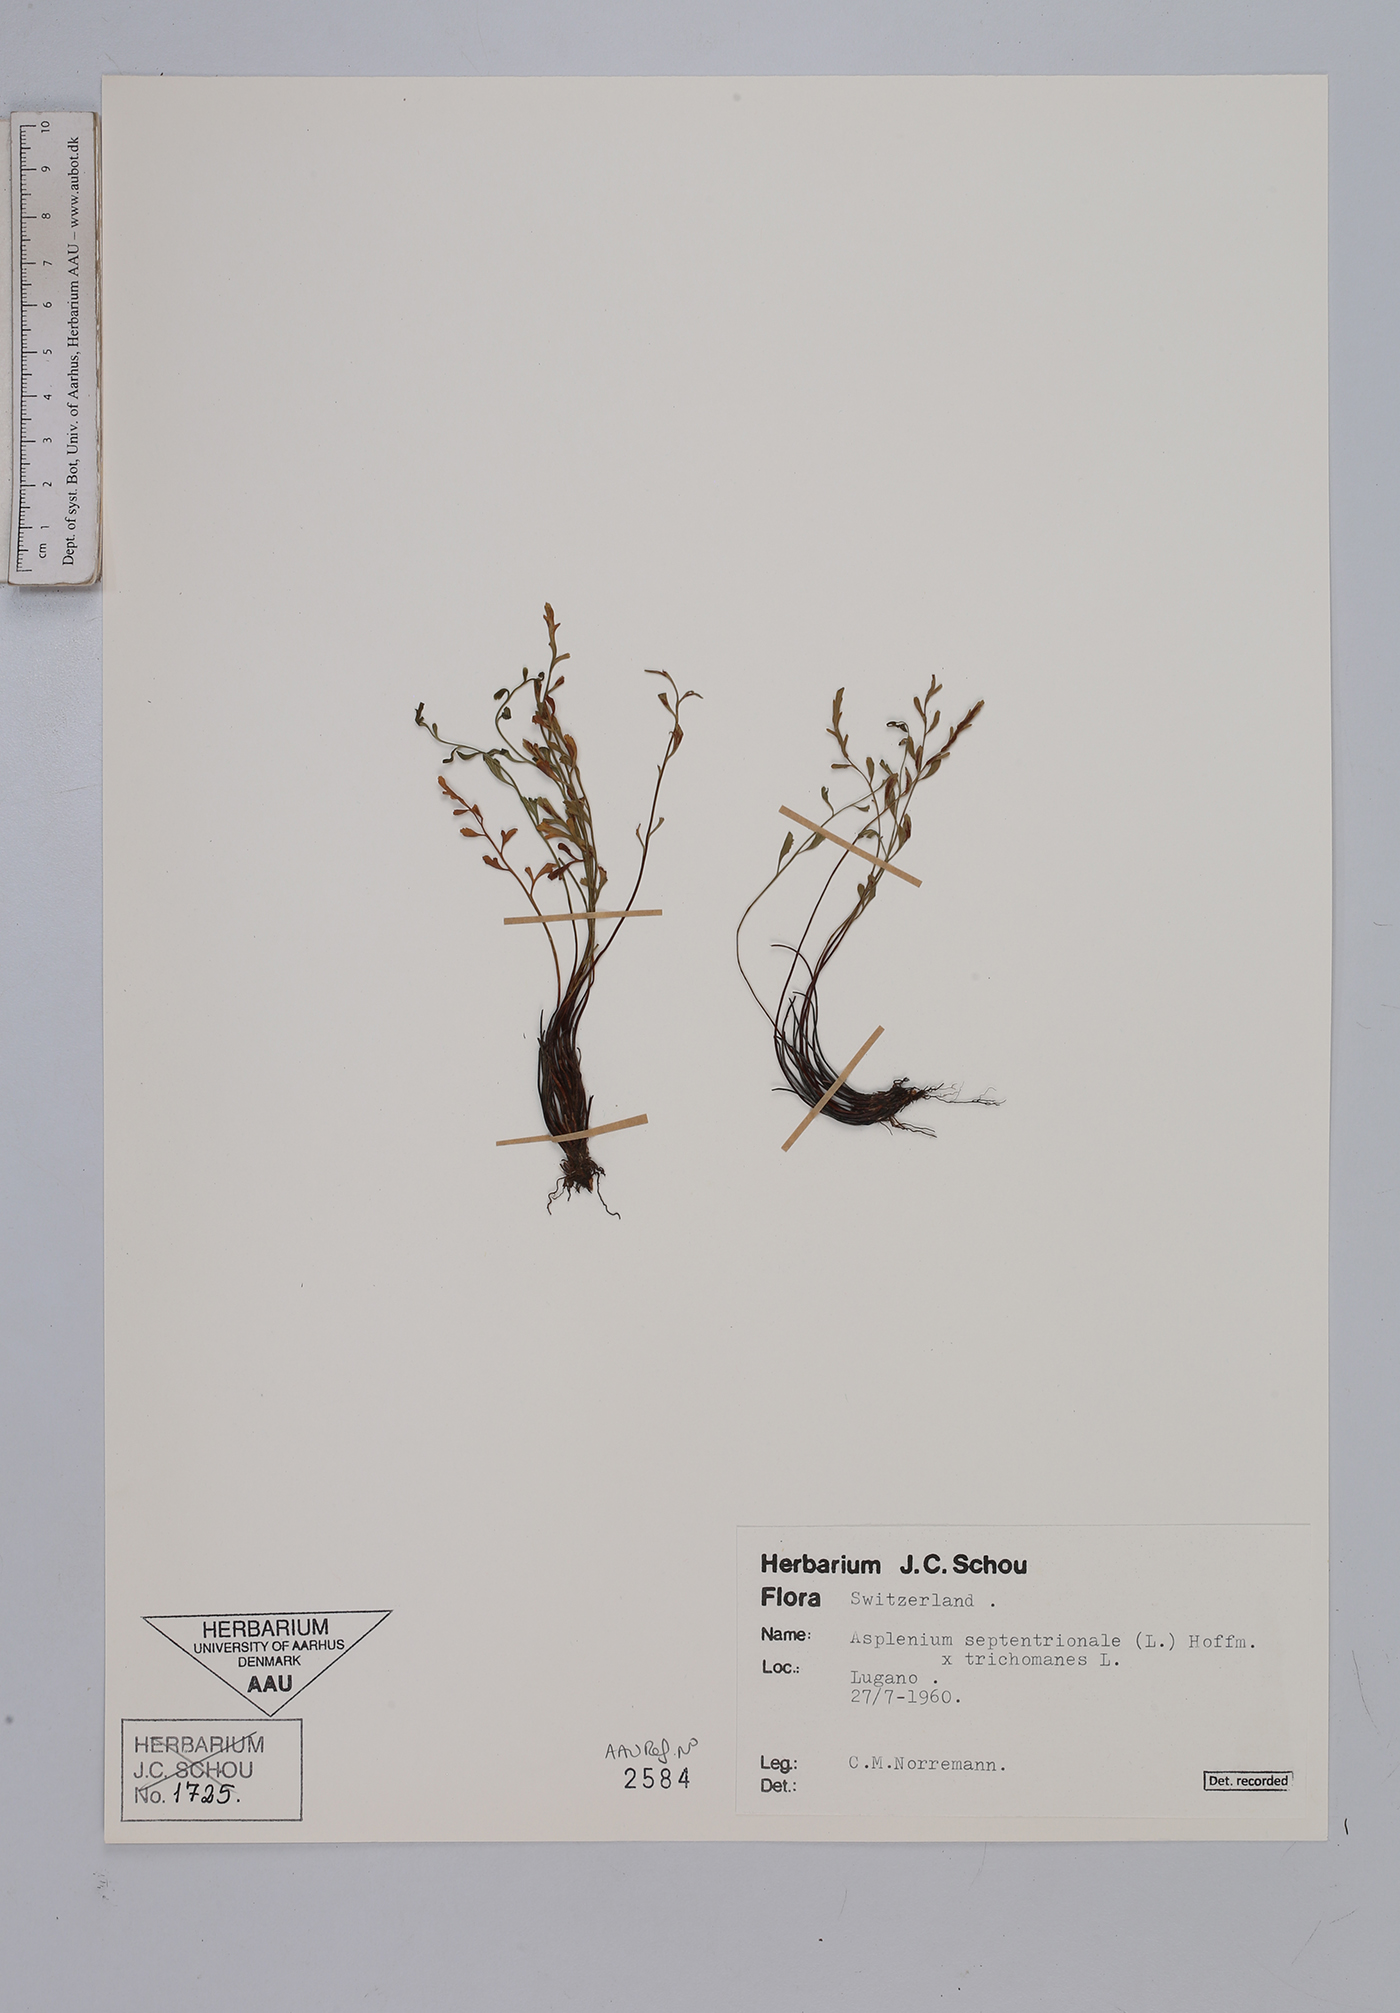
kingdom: Plantae
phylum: Tracheophyta
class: Polypodiopsida
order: Polypodiales
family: Aspleniaceae
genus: Asplenium
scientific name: Asplenium
